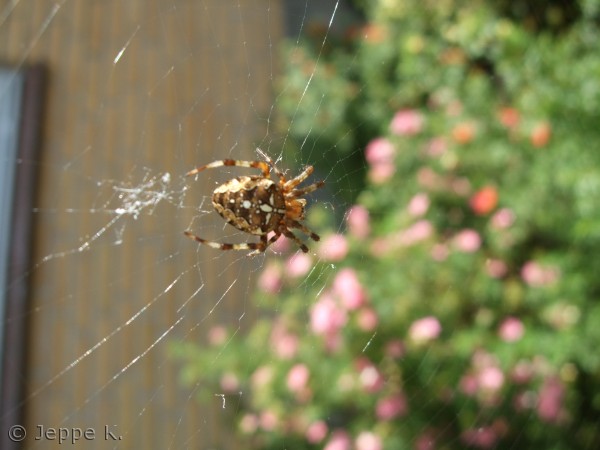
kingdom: Animalia
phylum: Arthropoda
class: Arachnida
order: Araneae
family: Araneidae
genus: Araneus
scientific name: Araneus diadematus
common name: Korsedderkop
